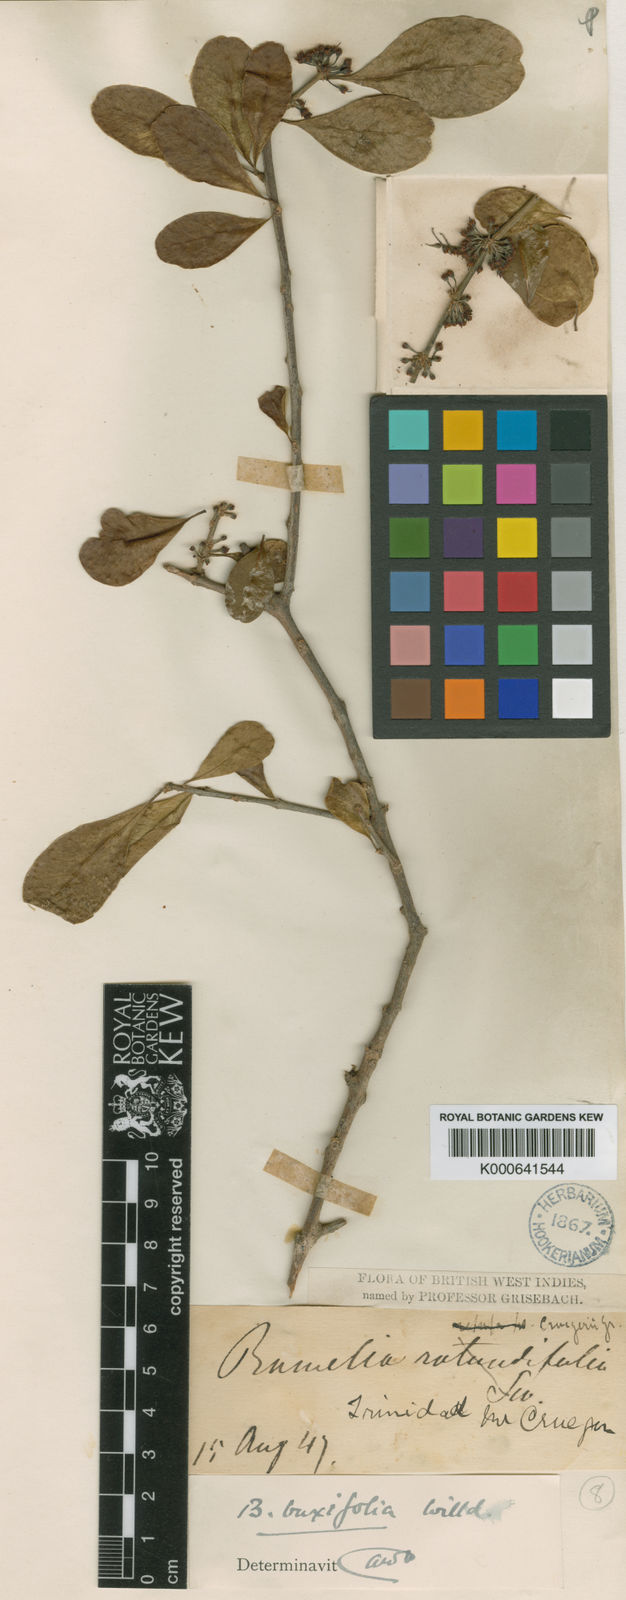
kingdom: Plantae
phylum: Tracheophyta
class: Magnoliopsida
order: Ericales
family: Sapotaceae
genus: Sideroxylon
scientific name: Sideroxylon obtusifolium
